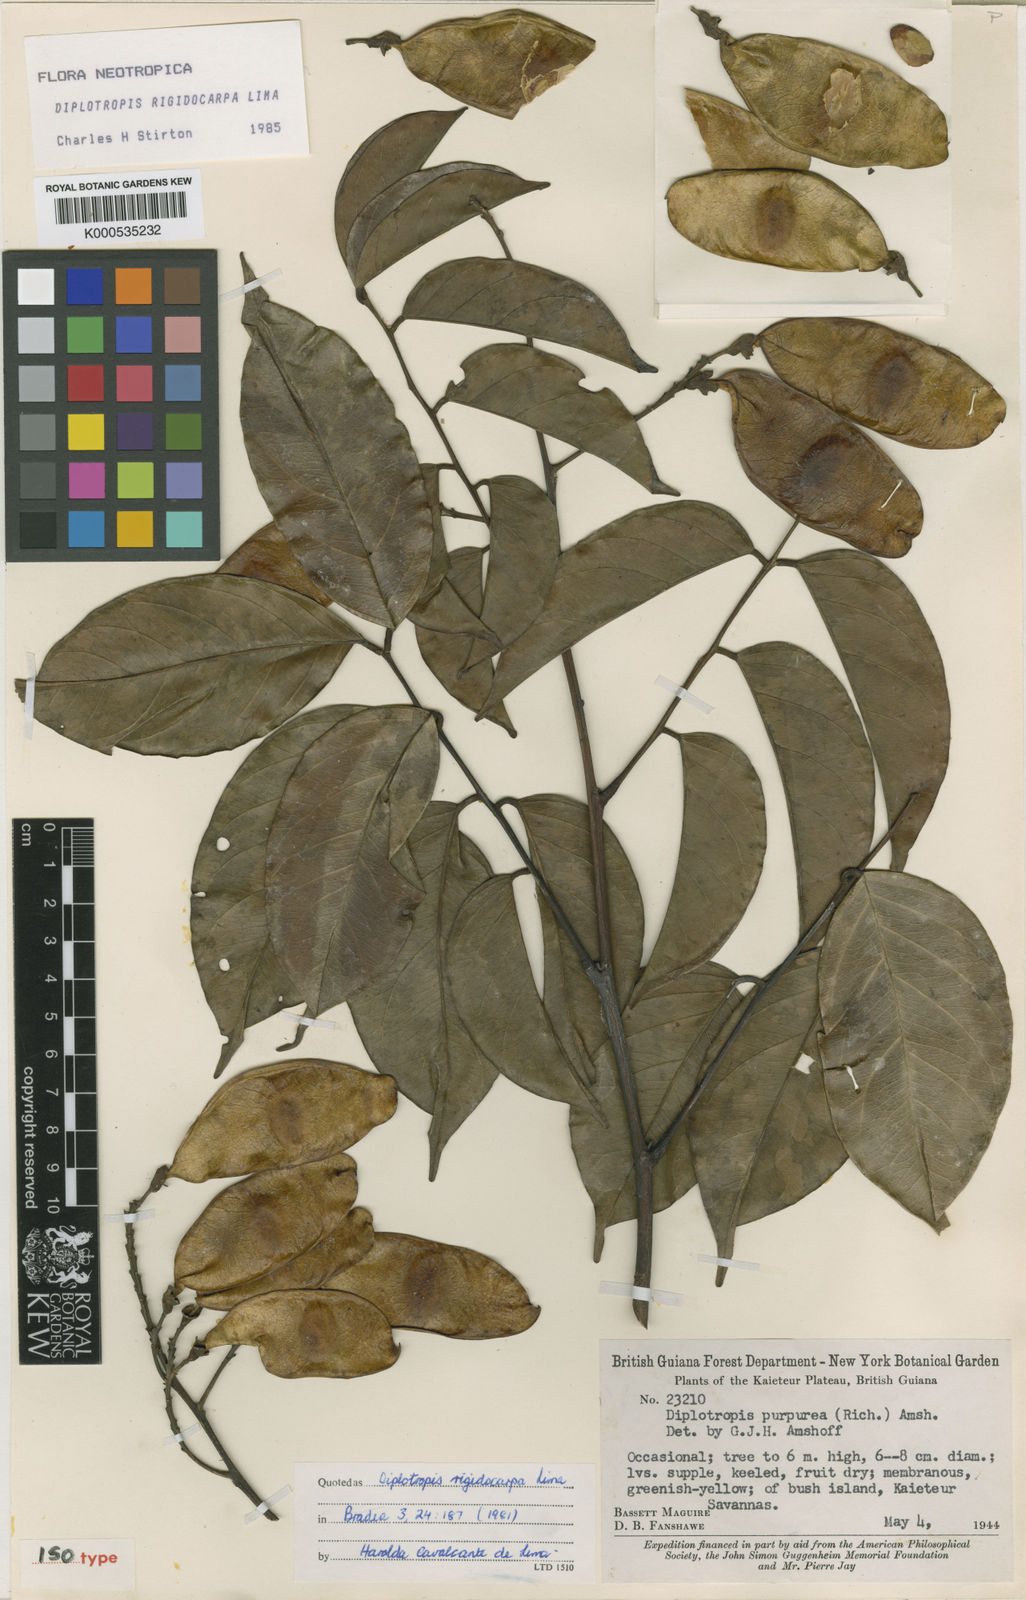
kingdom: Plantae
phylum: Tracheophyta
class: Magnoliopsida
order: Fabales
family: Fabaceae
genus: Diplotropis
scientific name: Diplotropis rigidocarpa
